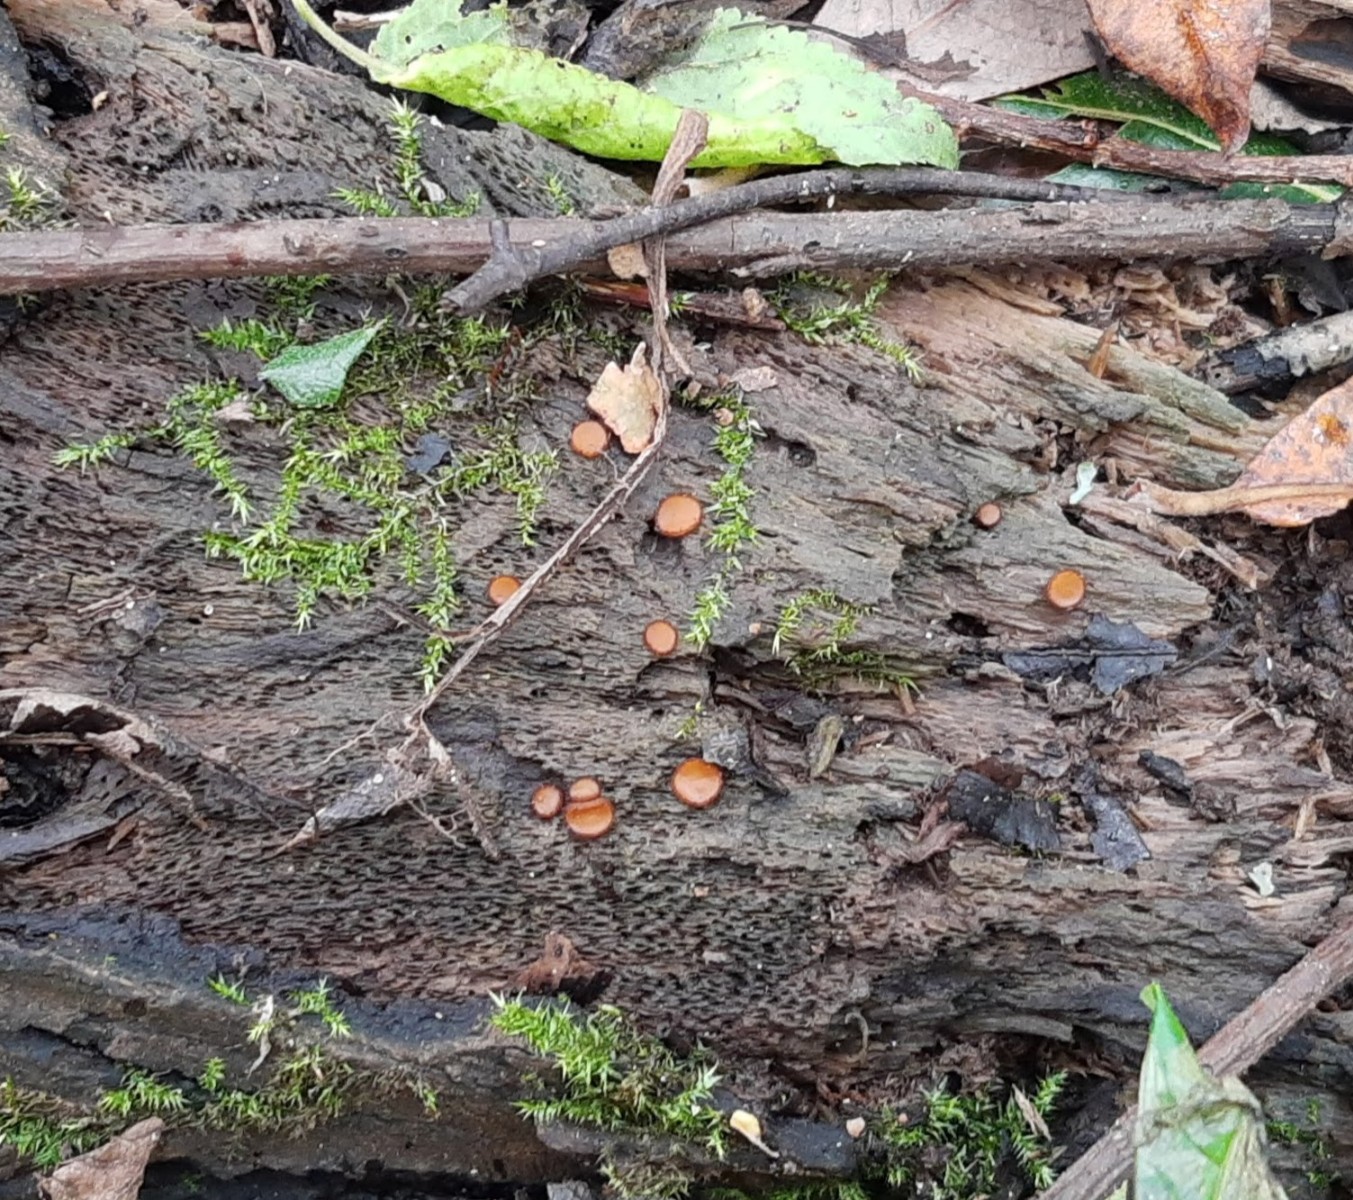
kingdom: Fungi
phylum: Ascomycota
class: Pezizomycetes
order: Pezizales
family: Pyronemataceae
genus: Scutellinia
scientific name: Scutellinia scutellata
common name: frynset skjoldbæger
